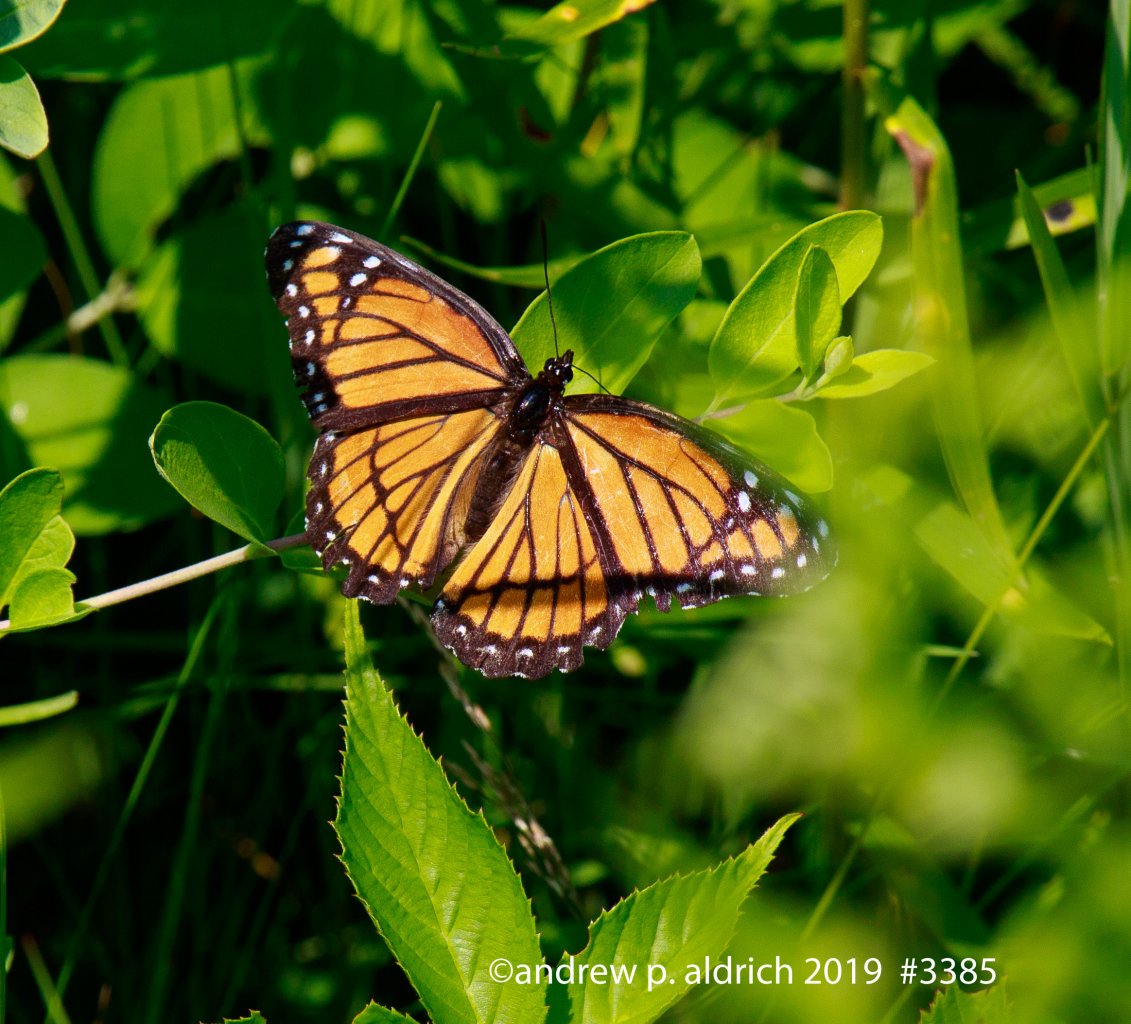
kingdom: Animalia
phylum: Arthropoda
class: Insecta
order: Lepidoptera
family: Nymphalidae
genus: Limenitis
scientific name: Limenitis archippus
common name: Viceroy
